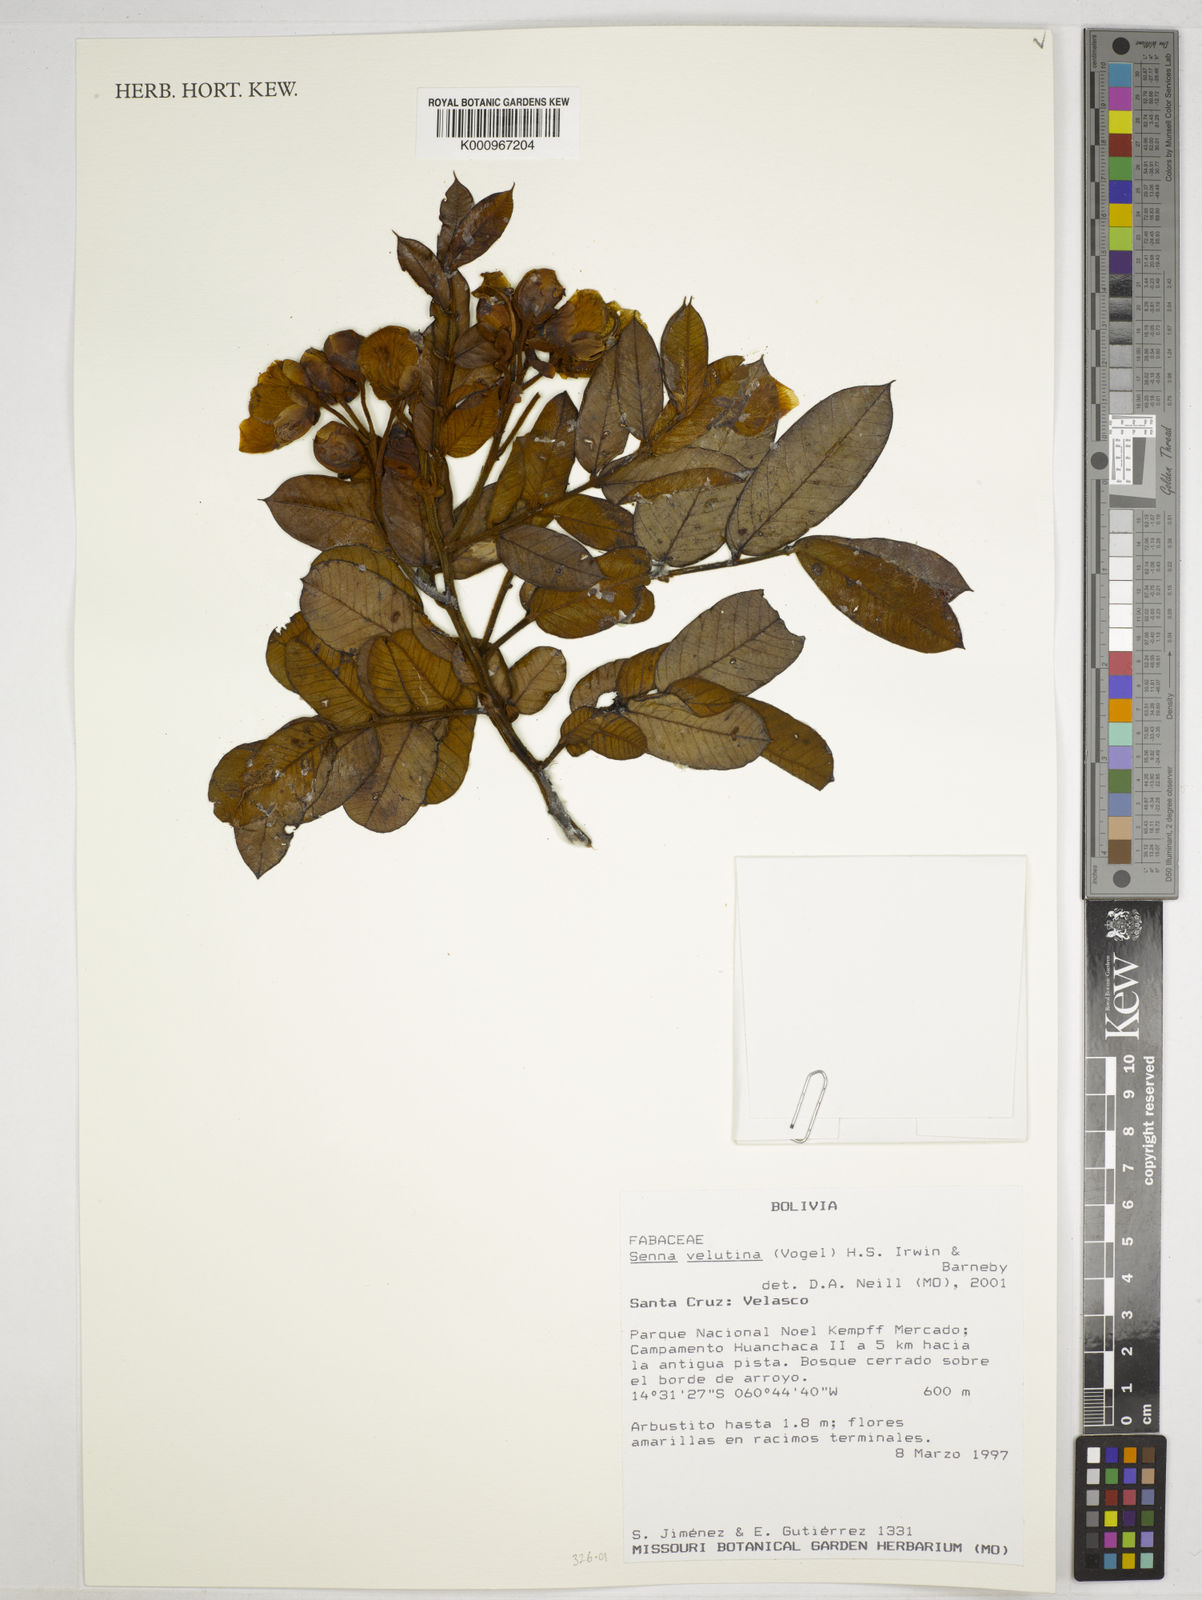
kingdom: Plantae
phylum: Tracheophyta
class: Magnoliopsida
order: Fabales
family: Fabaceae
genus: Senna
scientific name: Senna velutina
